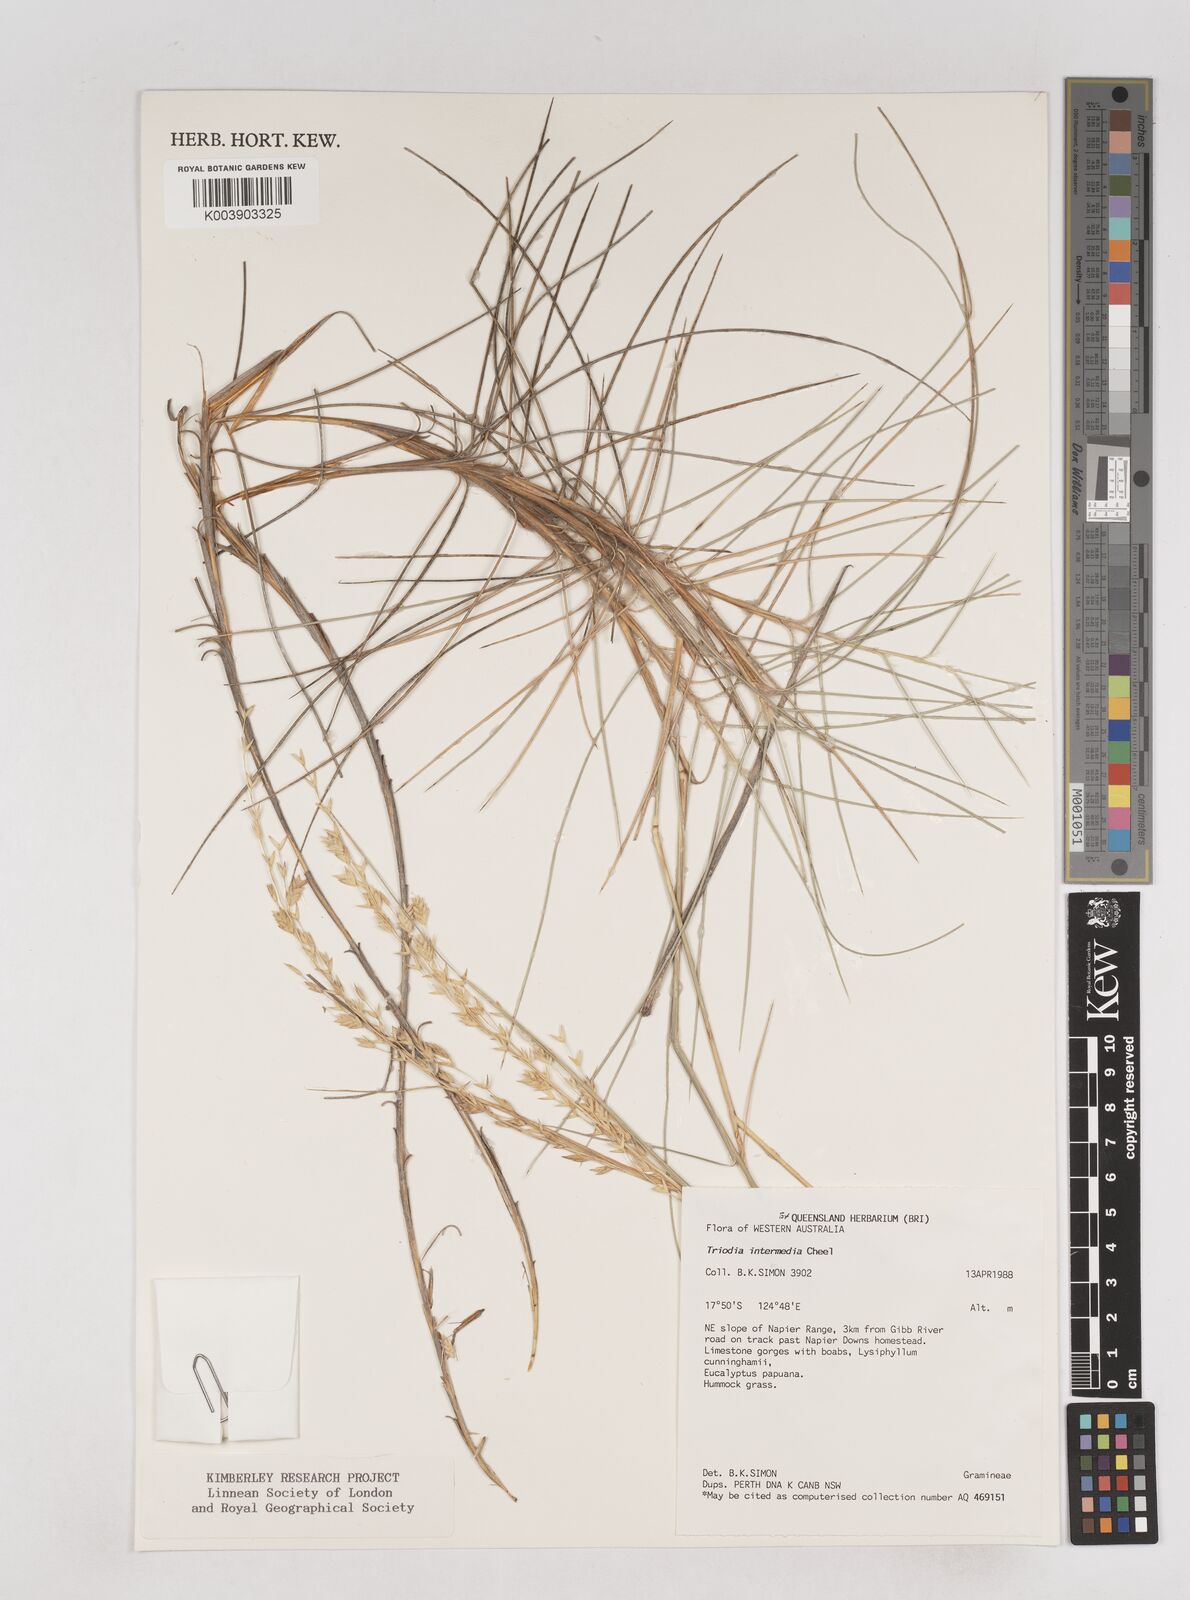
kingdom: Plantae
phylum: Tracheophyta
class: Liliopsida
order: Poales
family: Poaceae
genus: Triodia
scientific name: Triodia intermedia
